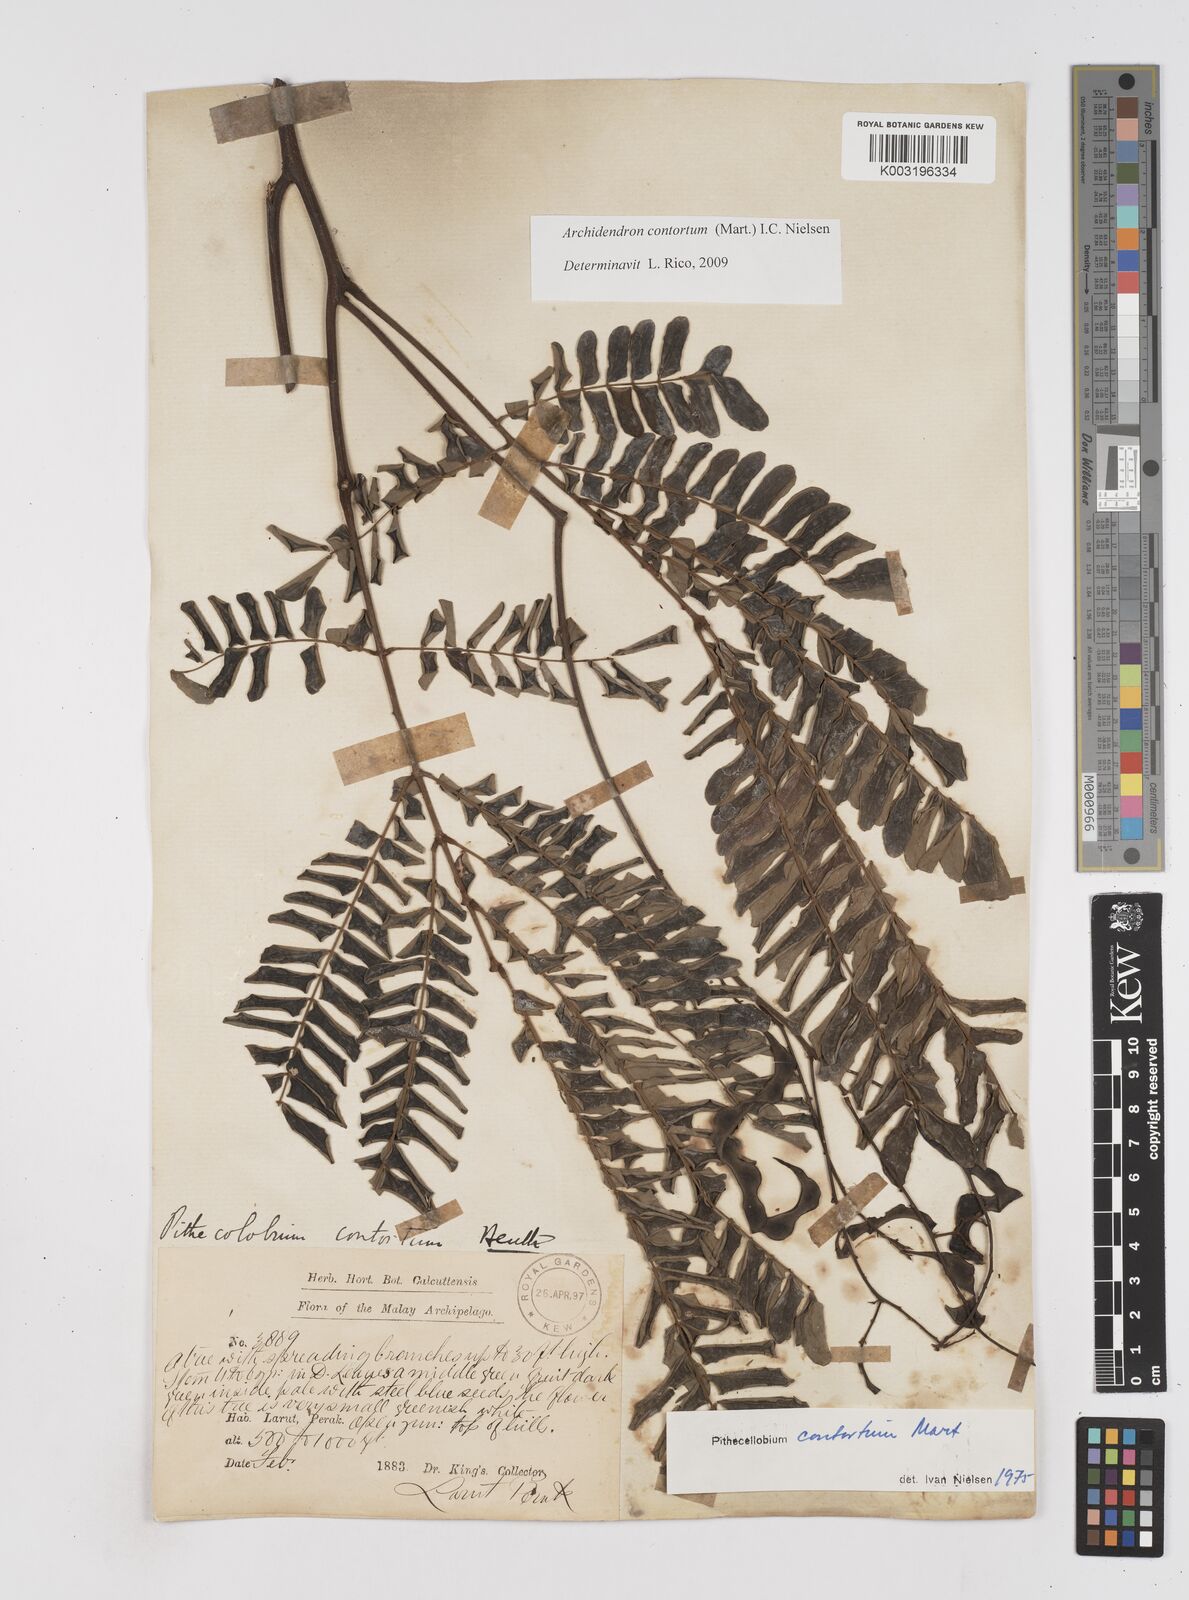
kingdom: Plantae
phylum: Tracheophyta
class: Magnoliopsida
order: Fabales
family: Fabaceae
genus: Archidendron
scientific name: Archidendron contortum
